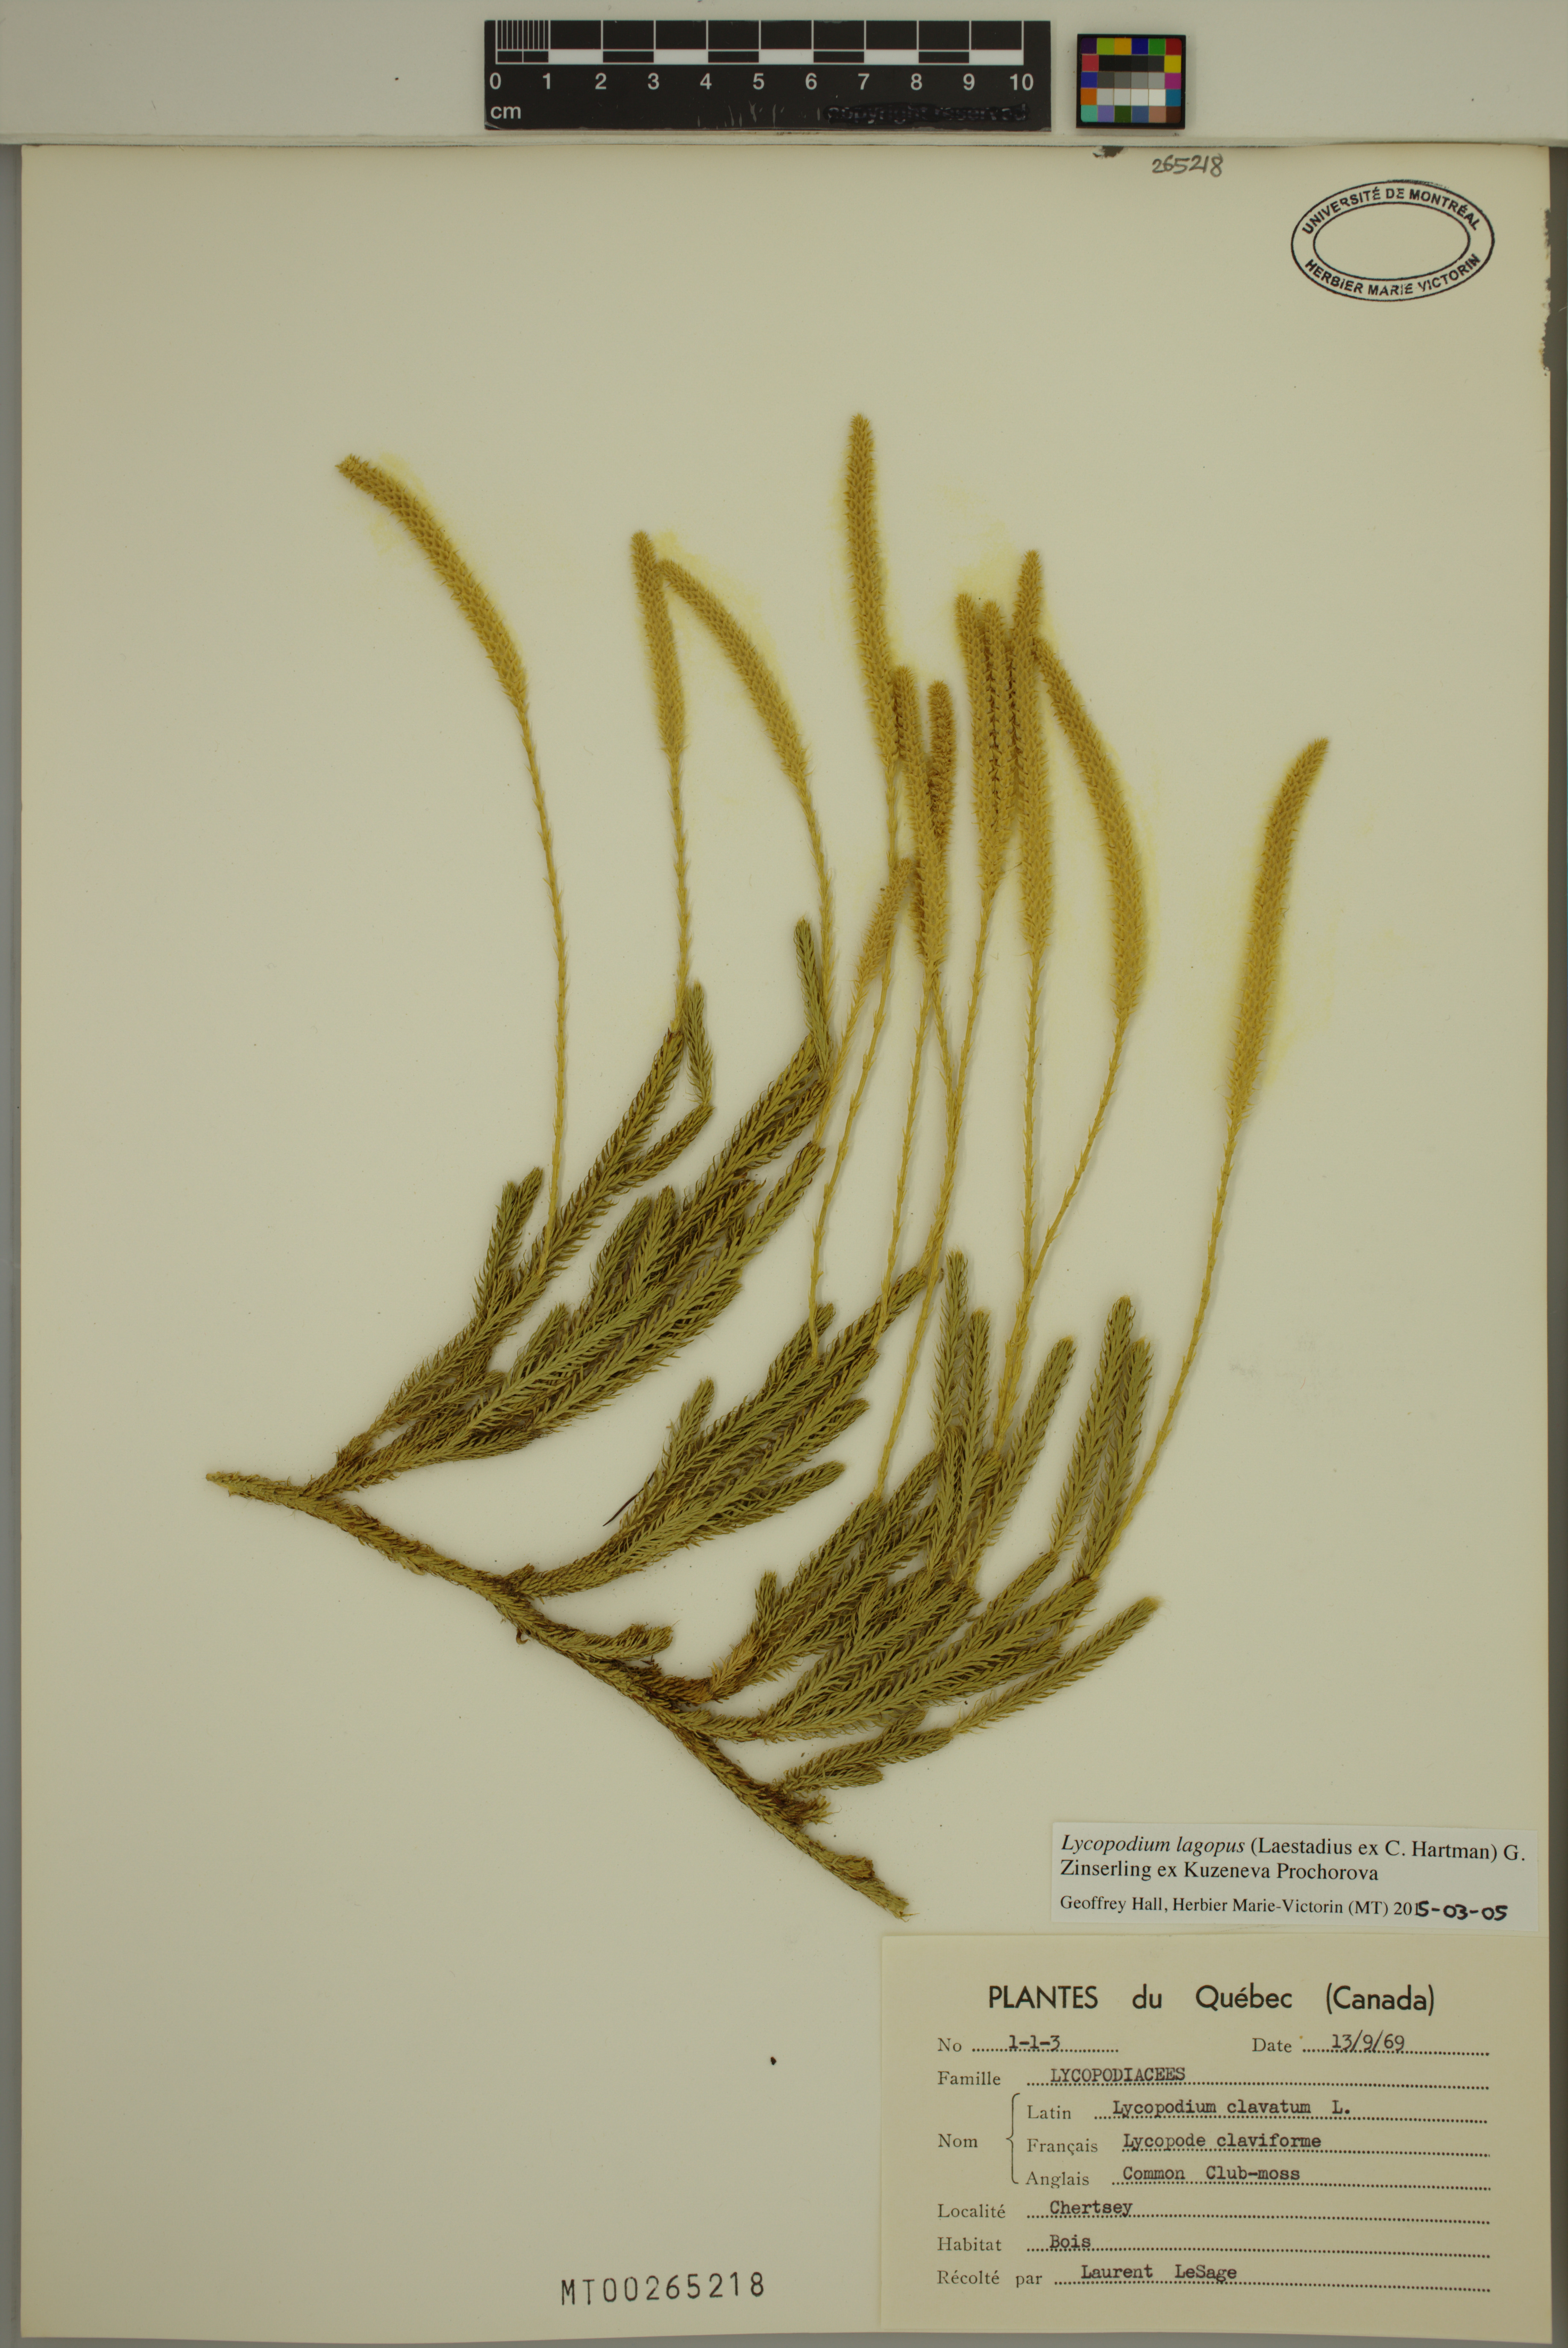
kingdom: Plantae
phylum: Tracheophyta
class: Lycopodiopsida
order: Lycopodiales
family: Lycopodiaceae
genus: Lycopodium
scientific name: Lycopodium lagopus
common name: One-cone clubmoss
